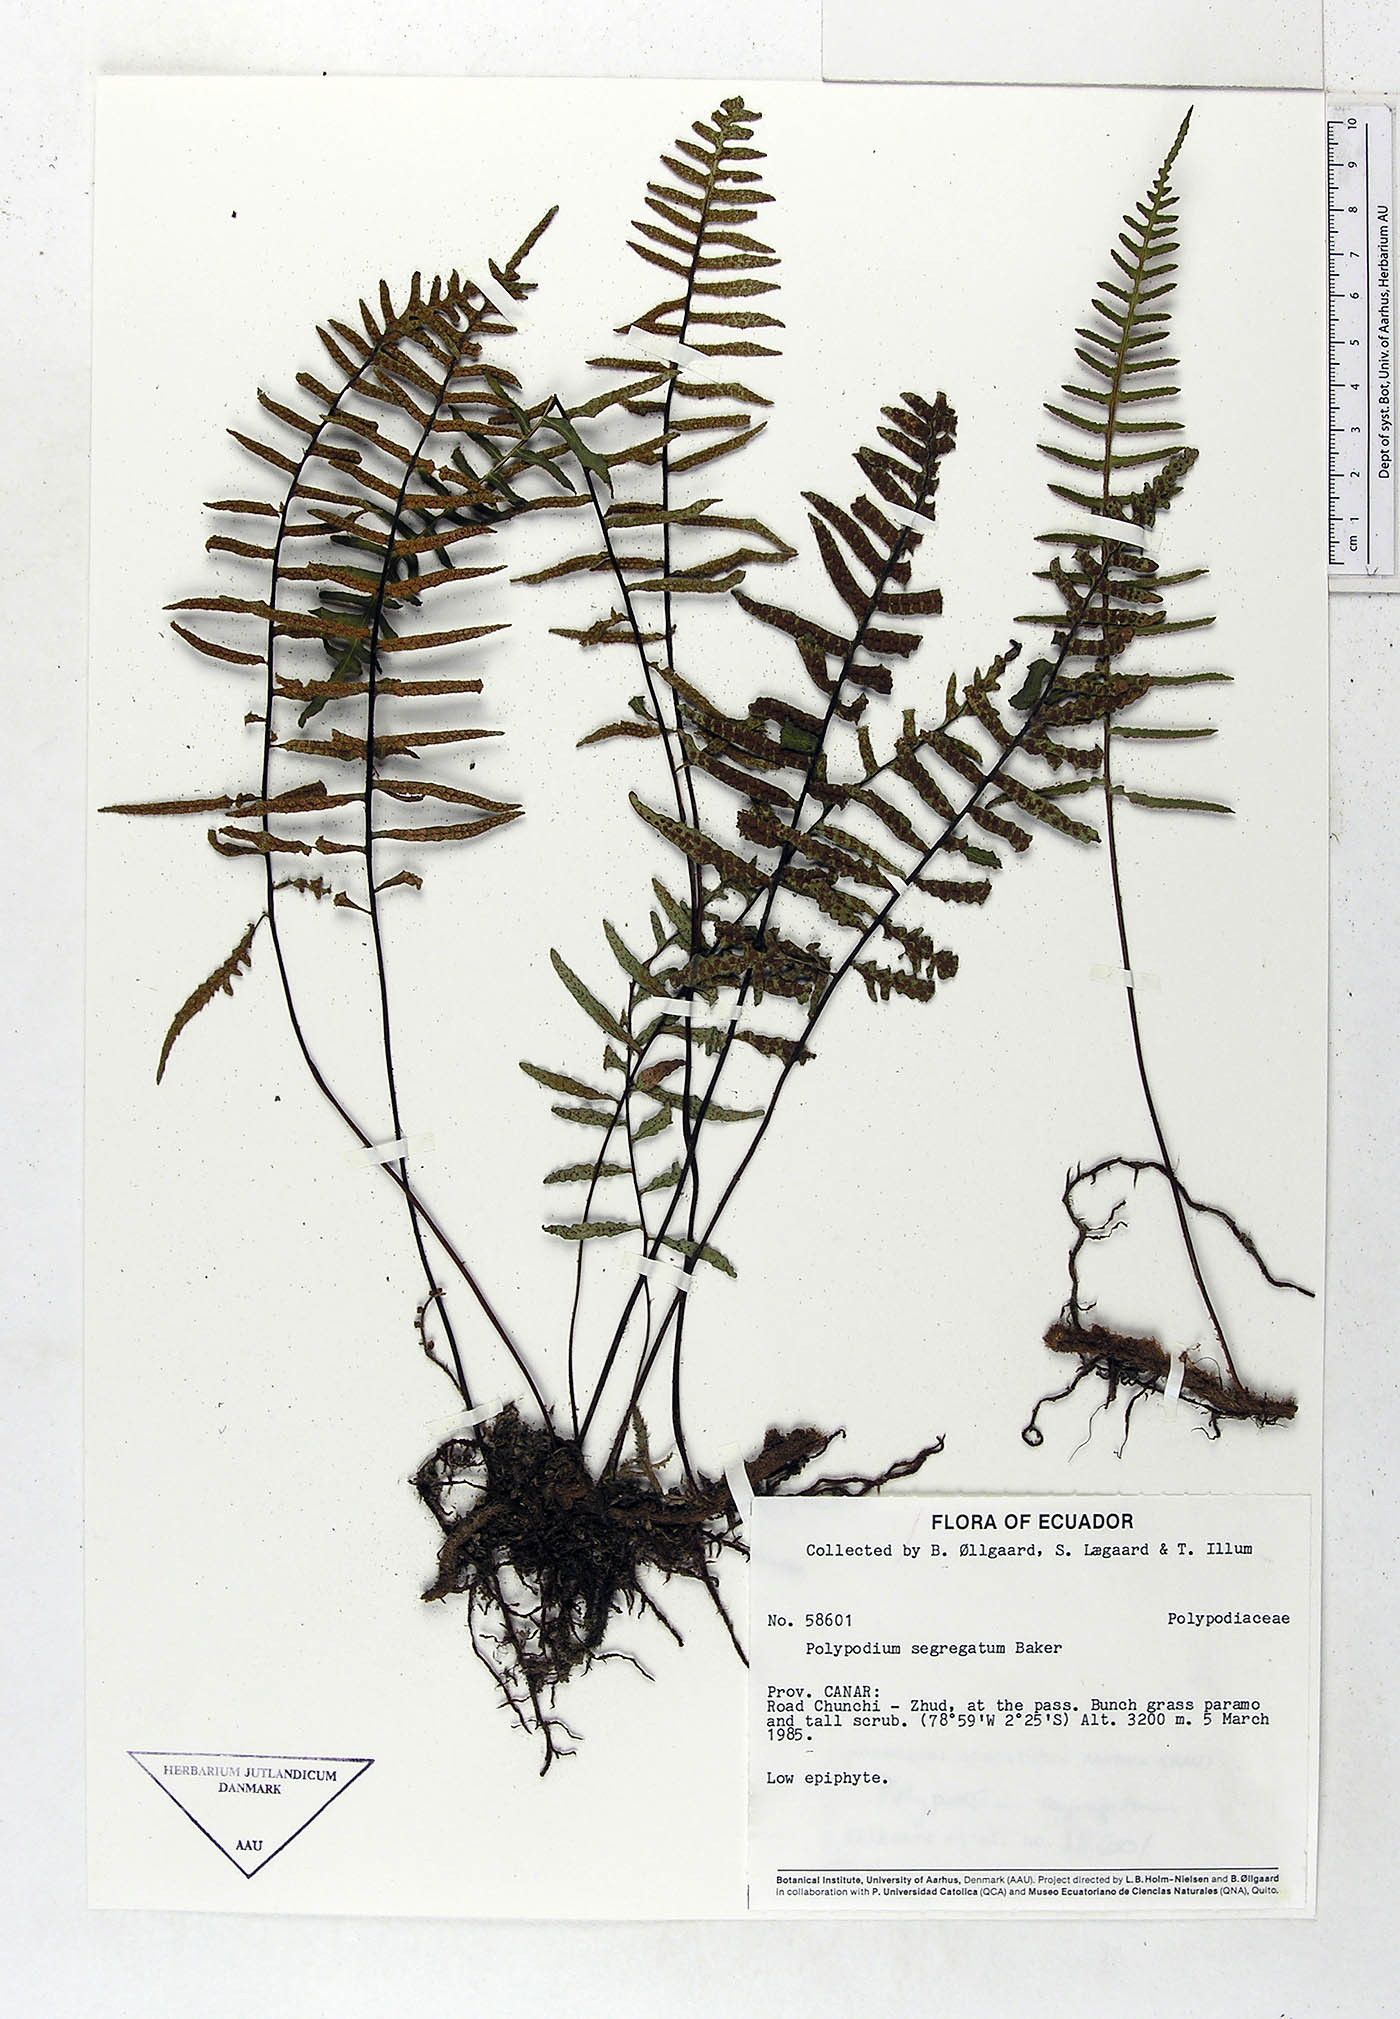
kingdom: Plantae
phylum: Tracheophyta
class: Polypodiopsida
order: Polypodiales
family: Polypodiaceae
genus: Pleopeltis
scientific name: Pleopeltis segregata
